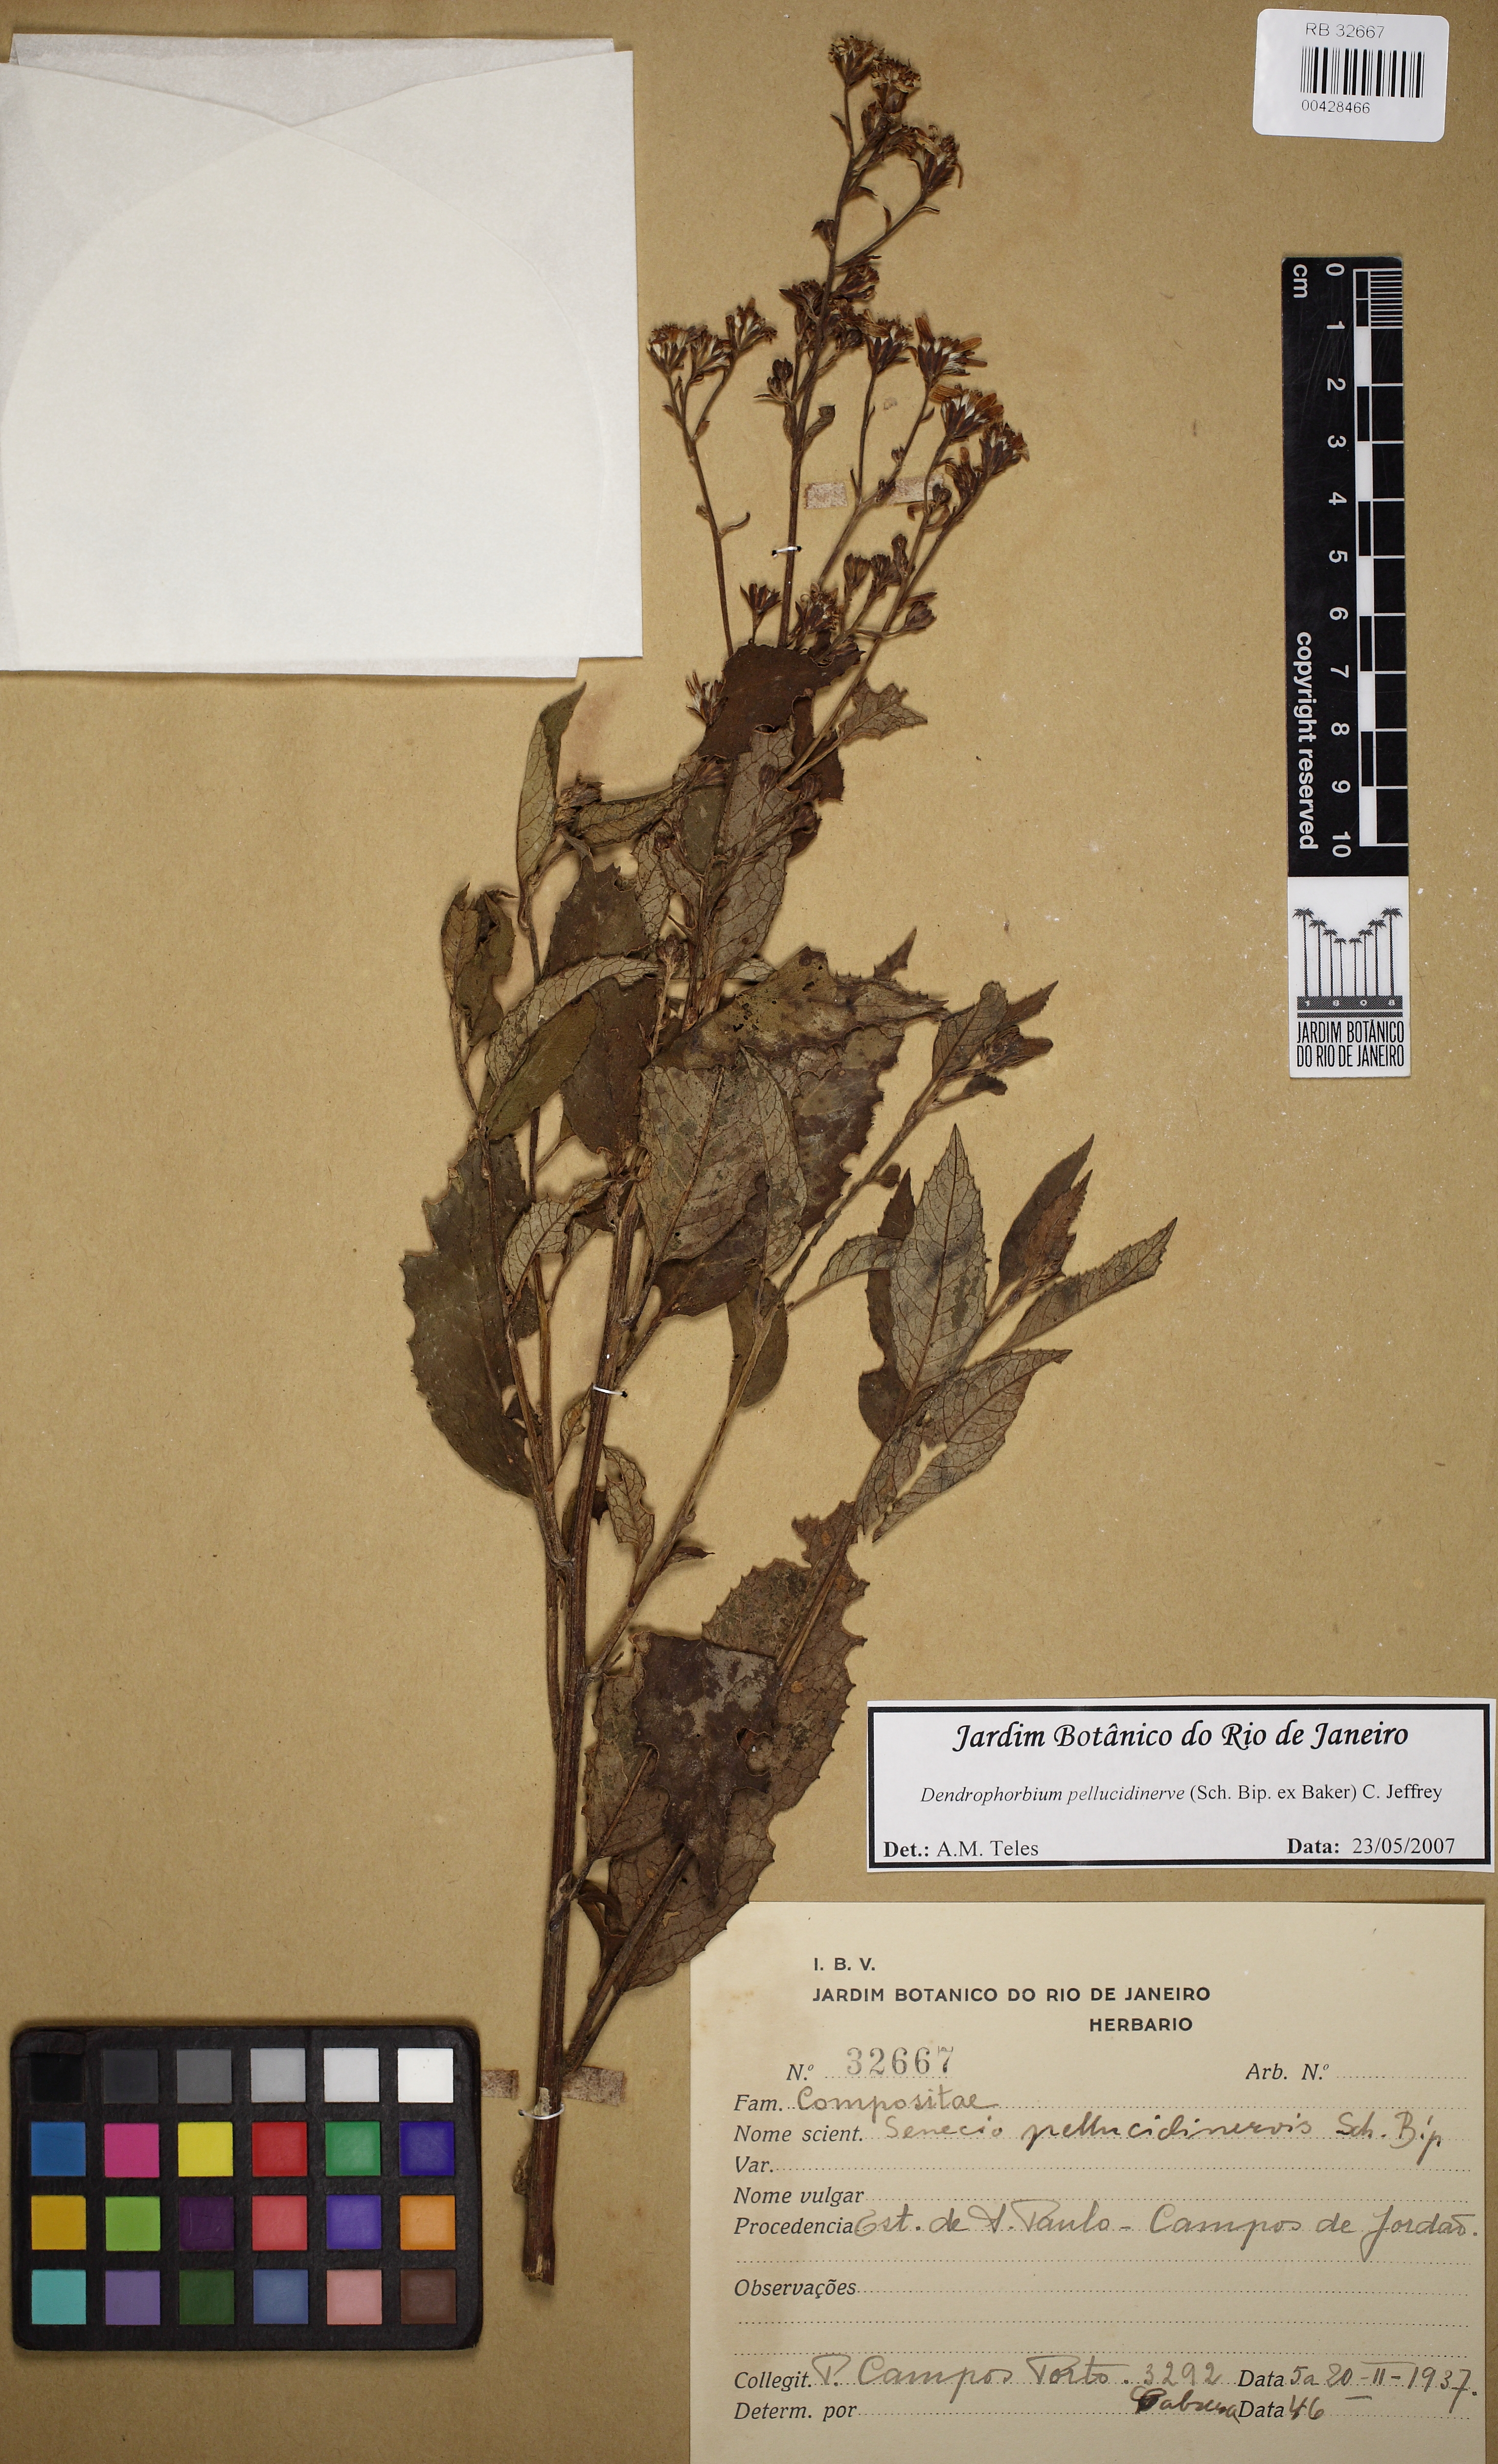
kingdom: Plantae
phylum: Tracheophyta
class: Magnoliopsida
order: Asterales
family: Asteraceae
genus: Dendrophorbium
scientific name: Dendrophorbium pellucidinerve
